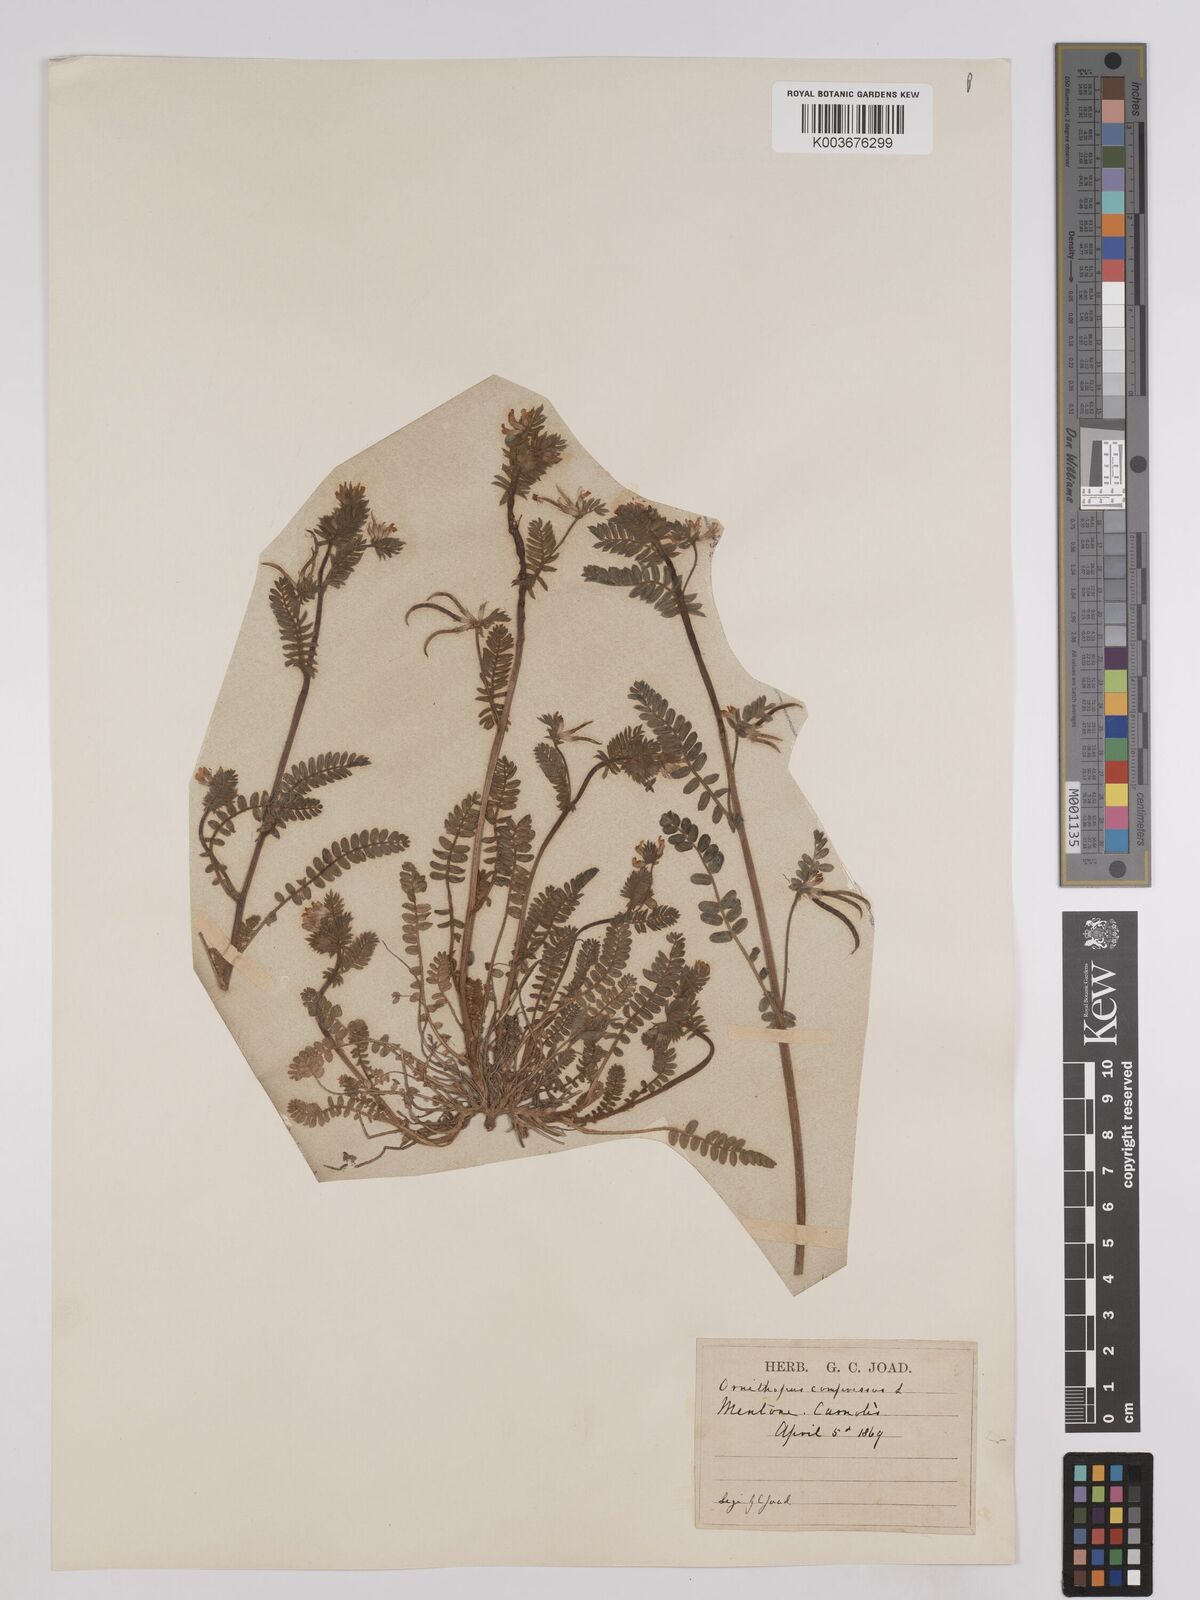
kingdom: Plantae
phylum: Tracheophyta
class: Magnoliopsida
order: Fabales
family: Fabaceae
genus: Ornithopus
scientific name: Ornithopus compressus
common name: Yellow serradella
